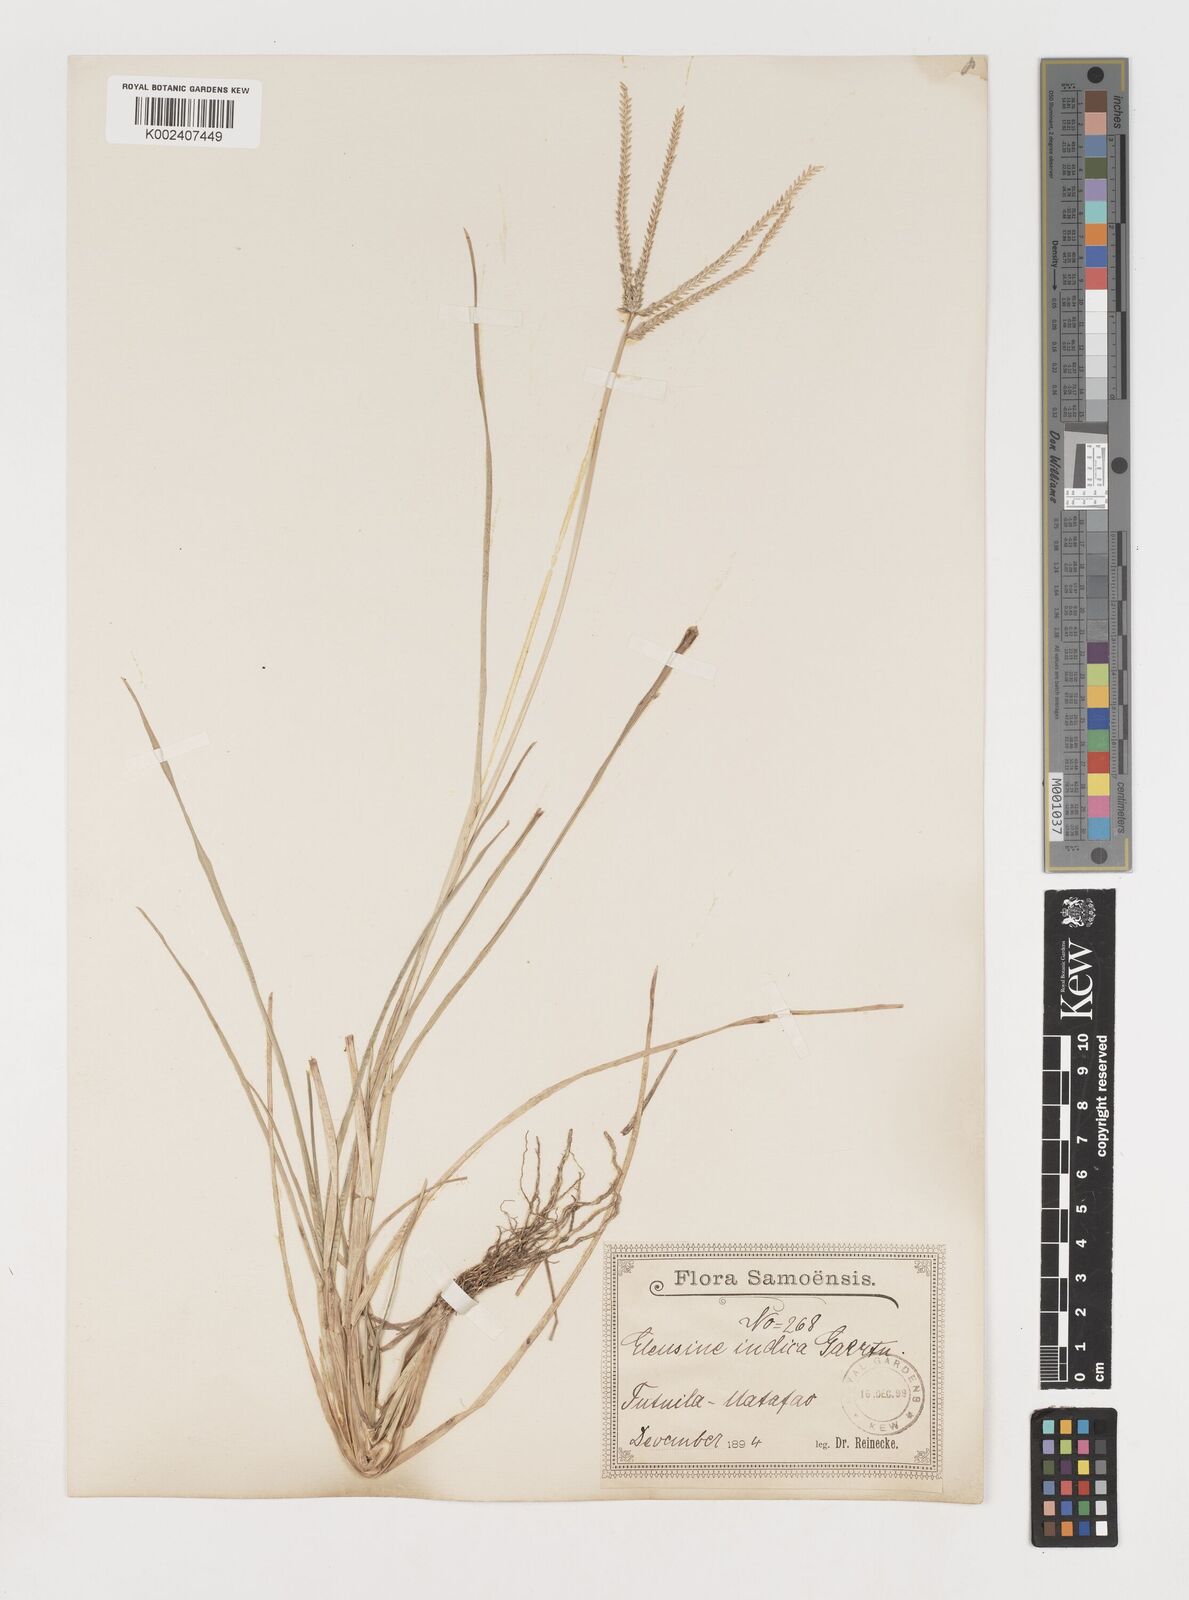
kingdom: Plantae
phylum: Tracheophyta
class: Liliopsida
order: Poales
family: Poaceae
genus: Eleusine
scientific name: Eleusine indica
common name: Yard-grass
